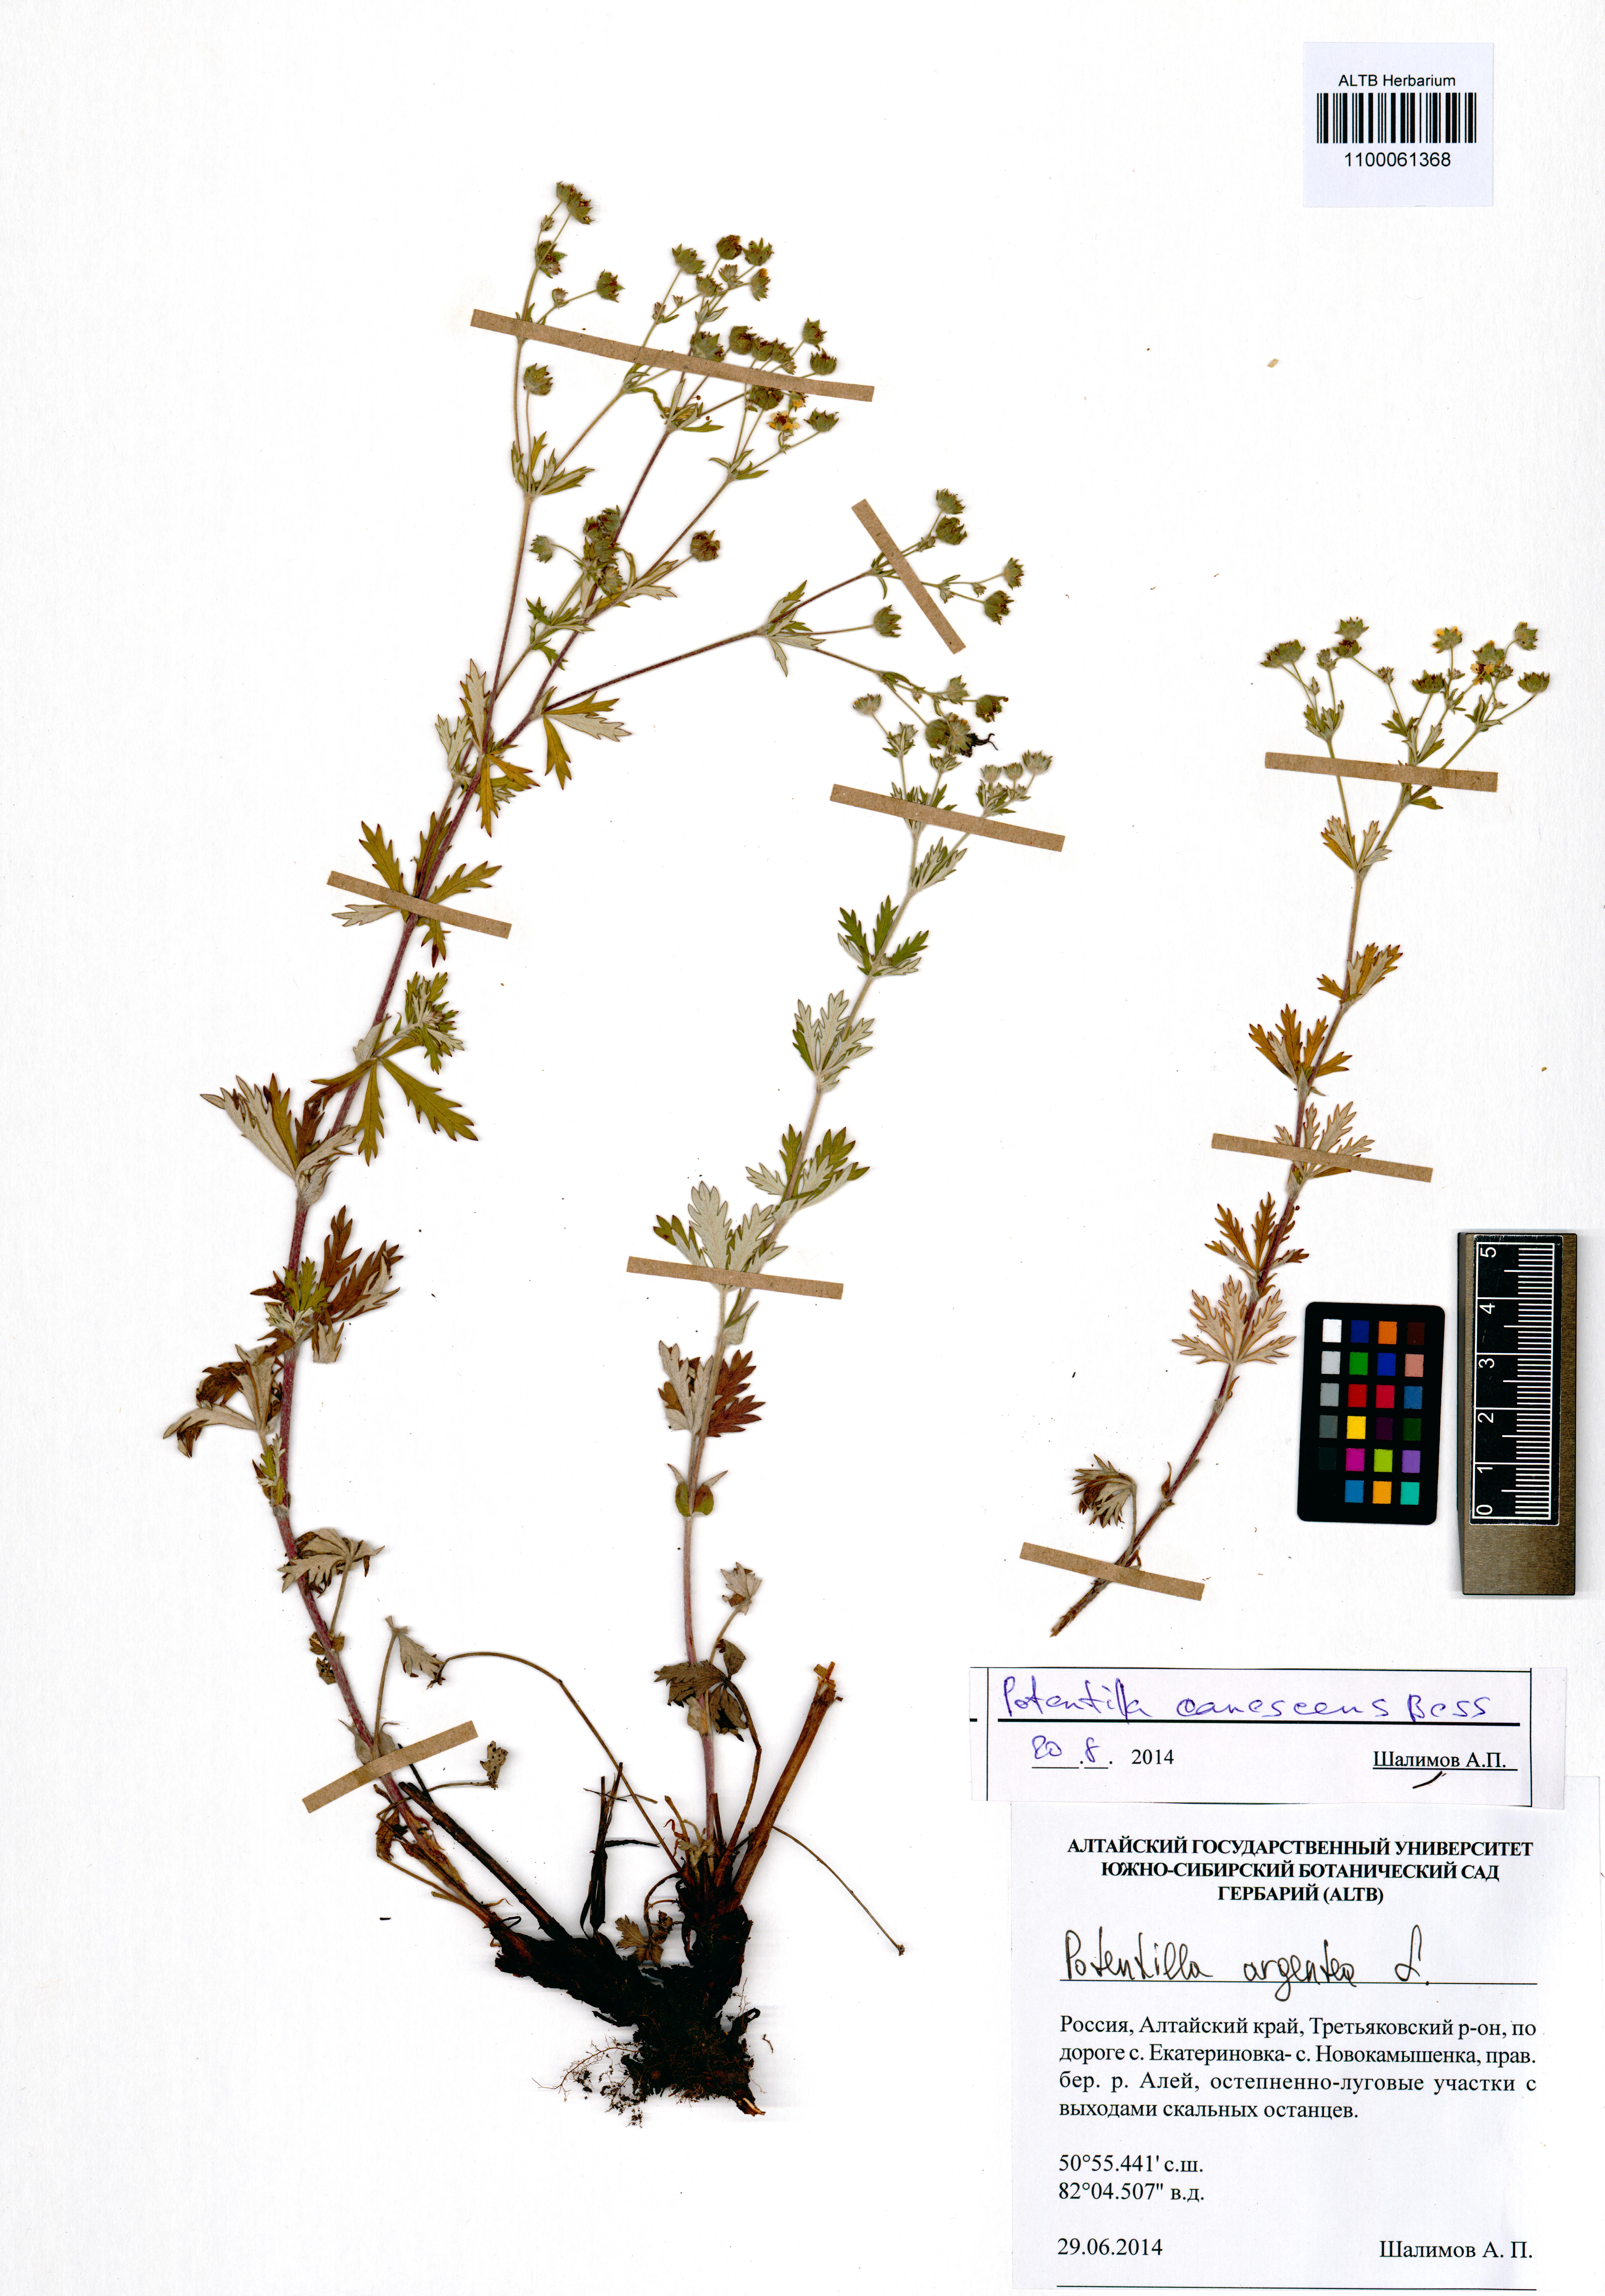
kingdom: Plantae
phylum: Tracheophyta
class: Magnoliopsida
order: Rosales
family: Rosaceae
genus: Potentilla
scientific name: Potentilla inclinata
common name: Grey cinquefoil
